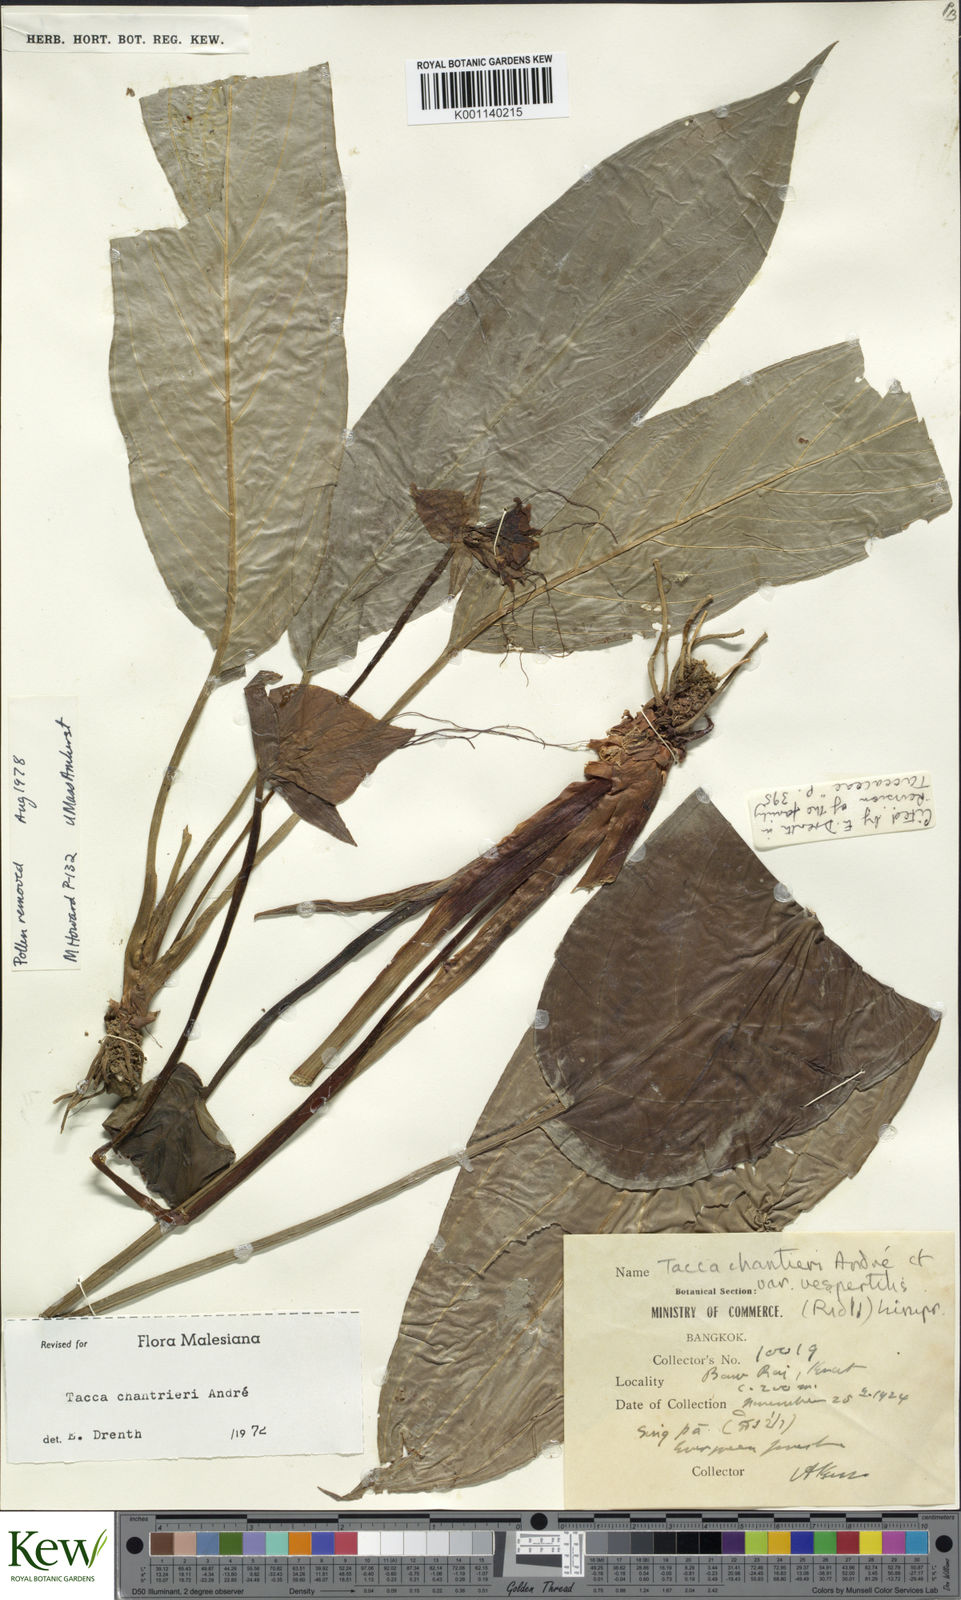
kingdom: Plantae
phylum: Tracheophyta
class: Liliopsida
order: Dioscoreales
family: Dioscoreaceae
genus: Tacca
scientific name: Tacca
